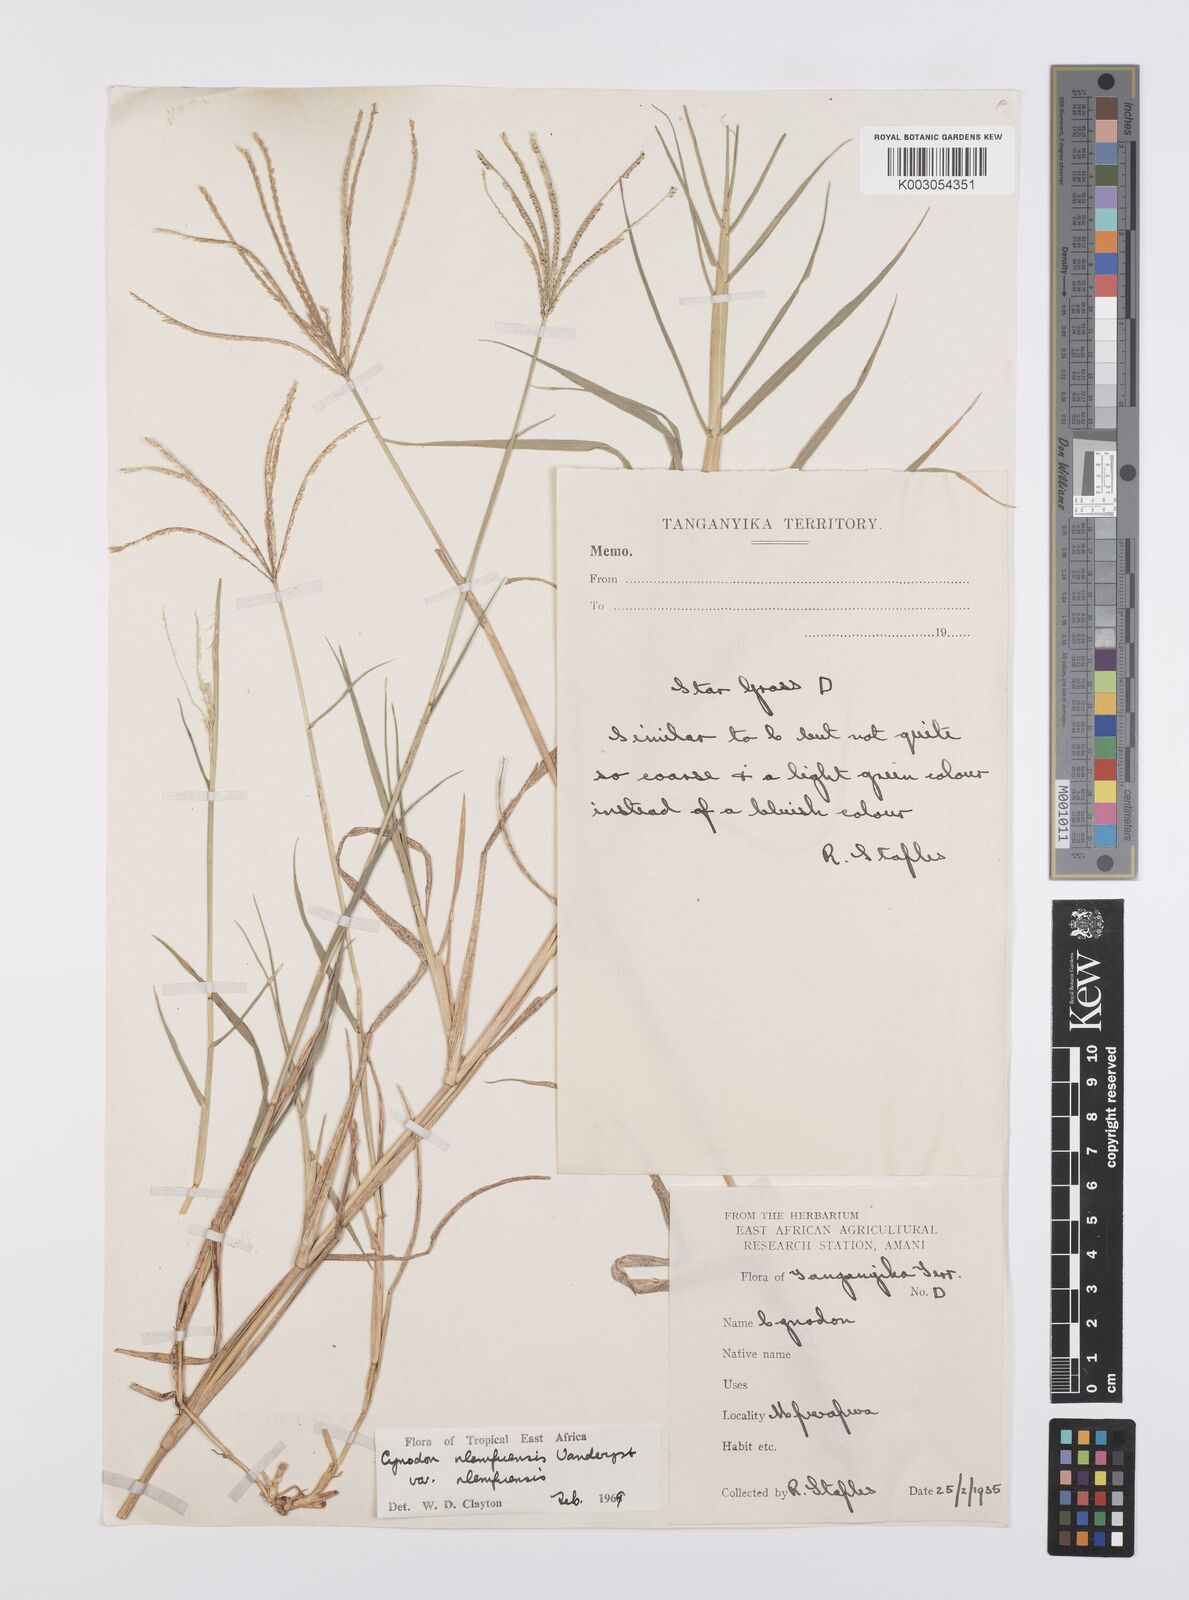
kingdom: Plantae
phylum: Tracheophyta
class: Liliopsida
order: Poales
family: Poaceae
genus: Cynodon
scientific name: Cynodon nlemfuensis
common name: African bermudagrass
